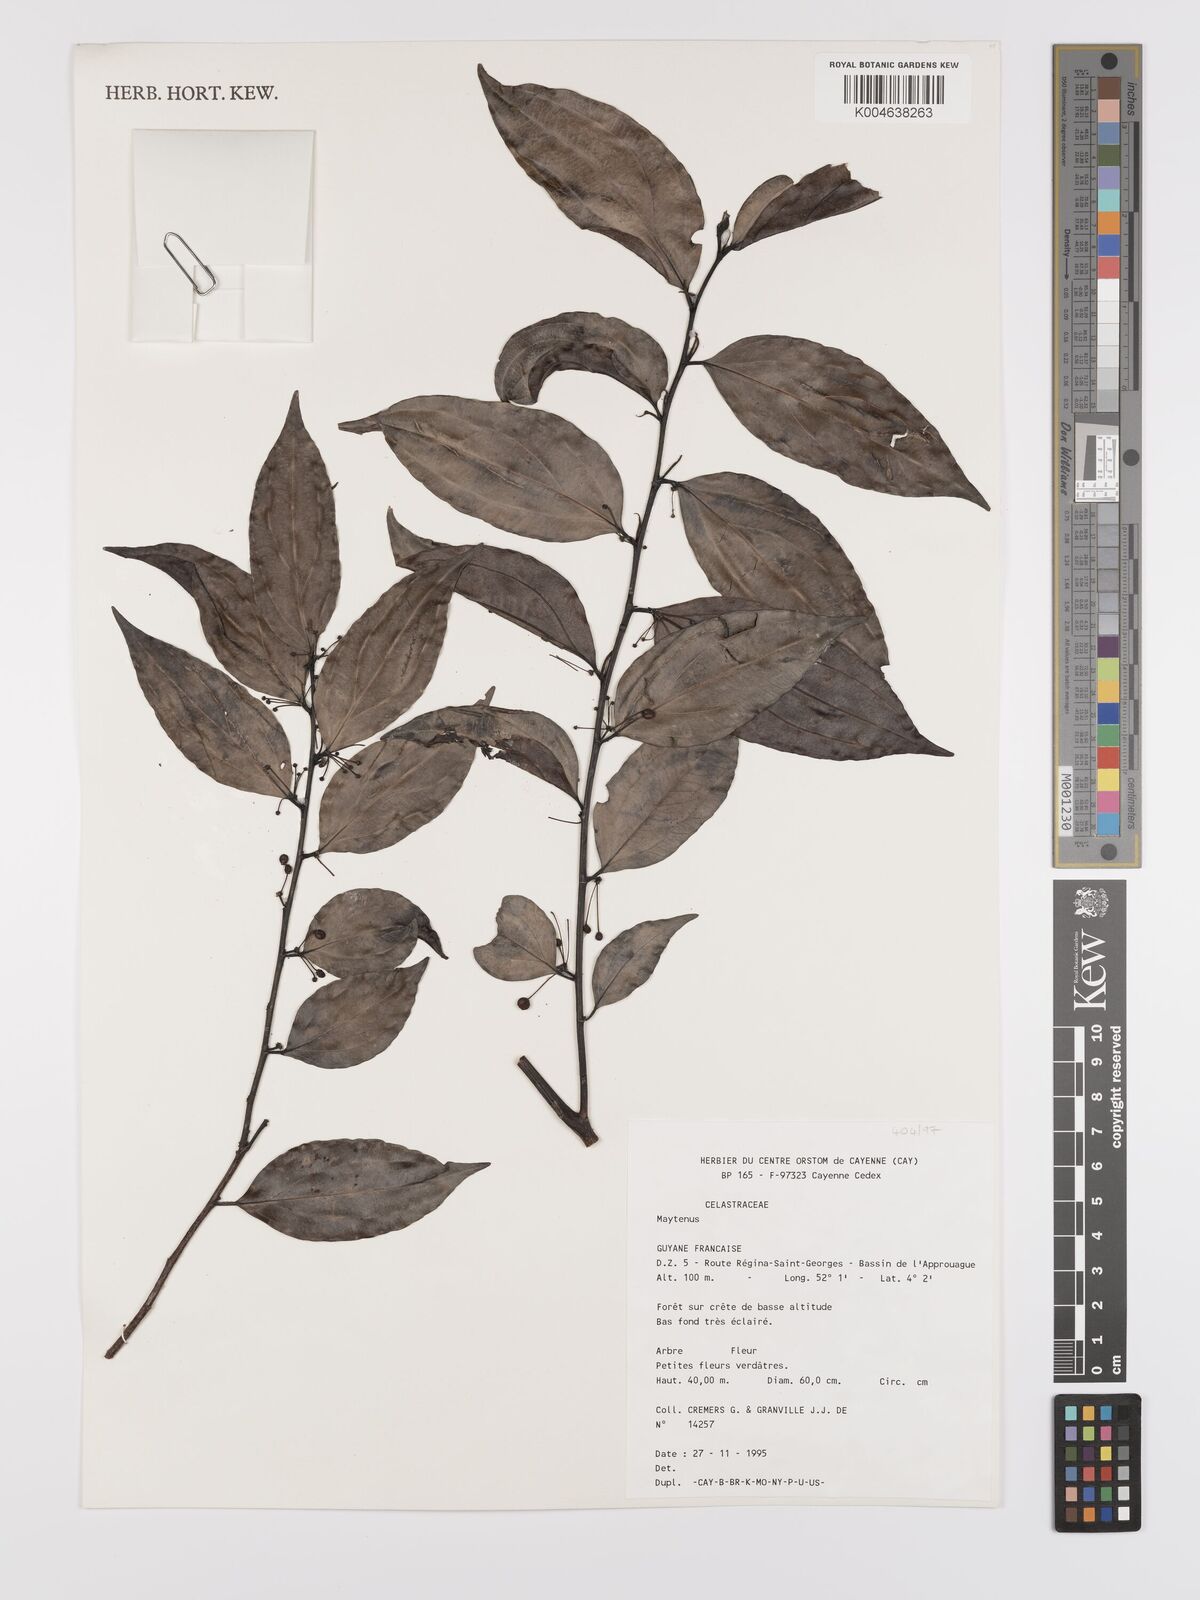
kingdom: Plantae
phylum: Tracheophyta
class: Magnoliopsida
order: Celastrales
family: Celastraceae
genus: Maytenus
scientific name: Maytenus
